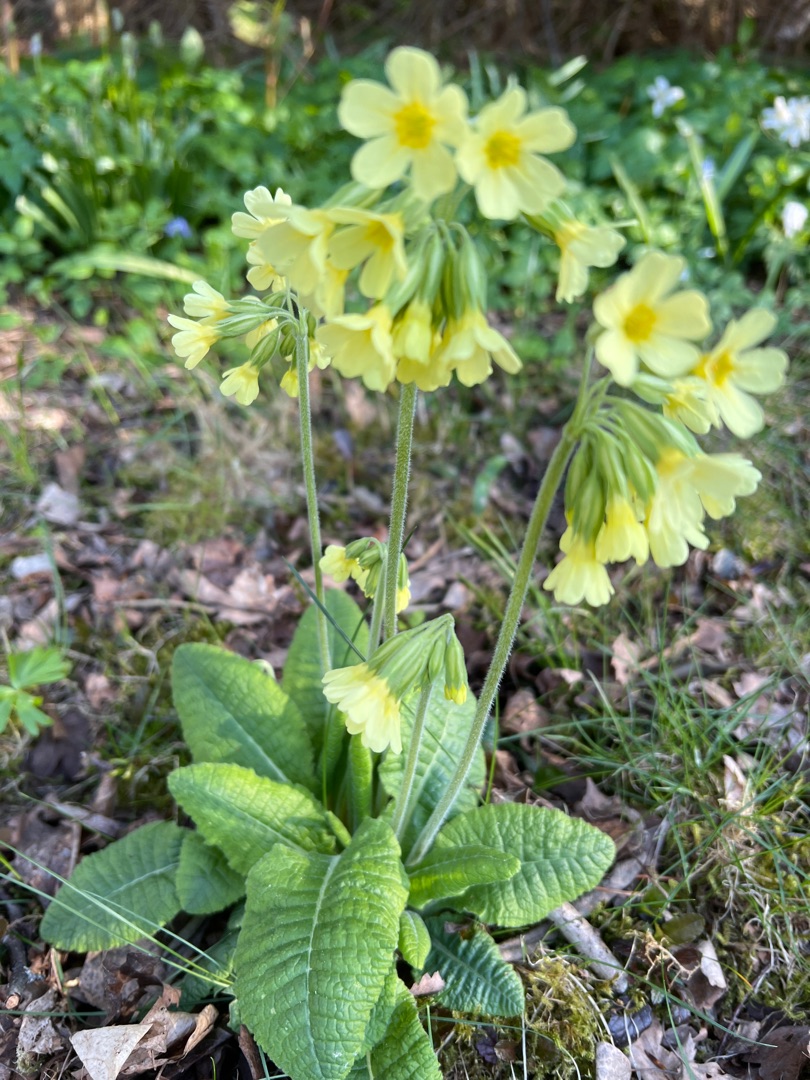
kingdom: Plantae
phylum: Tracheophyta
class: Magnoliopsida
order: Ericales
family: Primulaceae
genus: Primula
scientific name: Primula elatior
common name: Fladkravet kodriver
